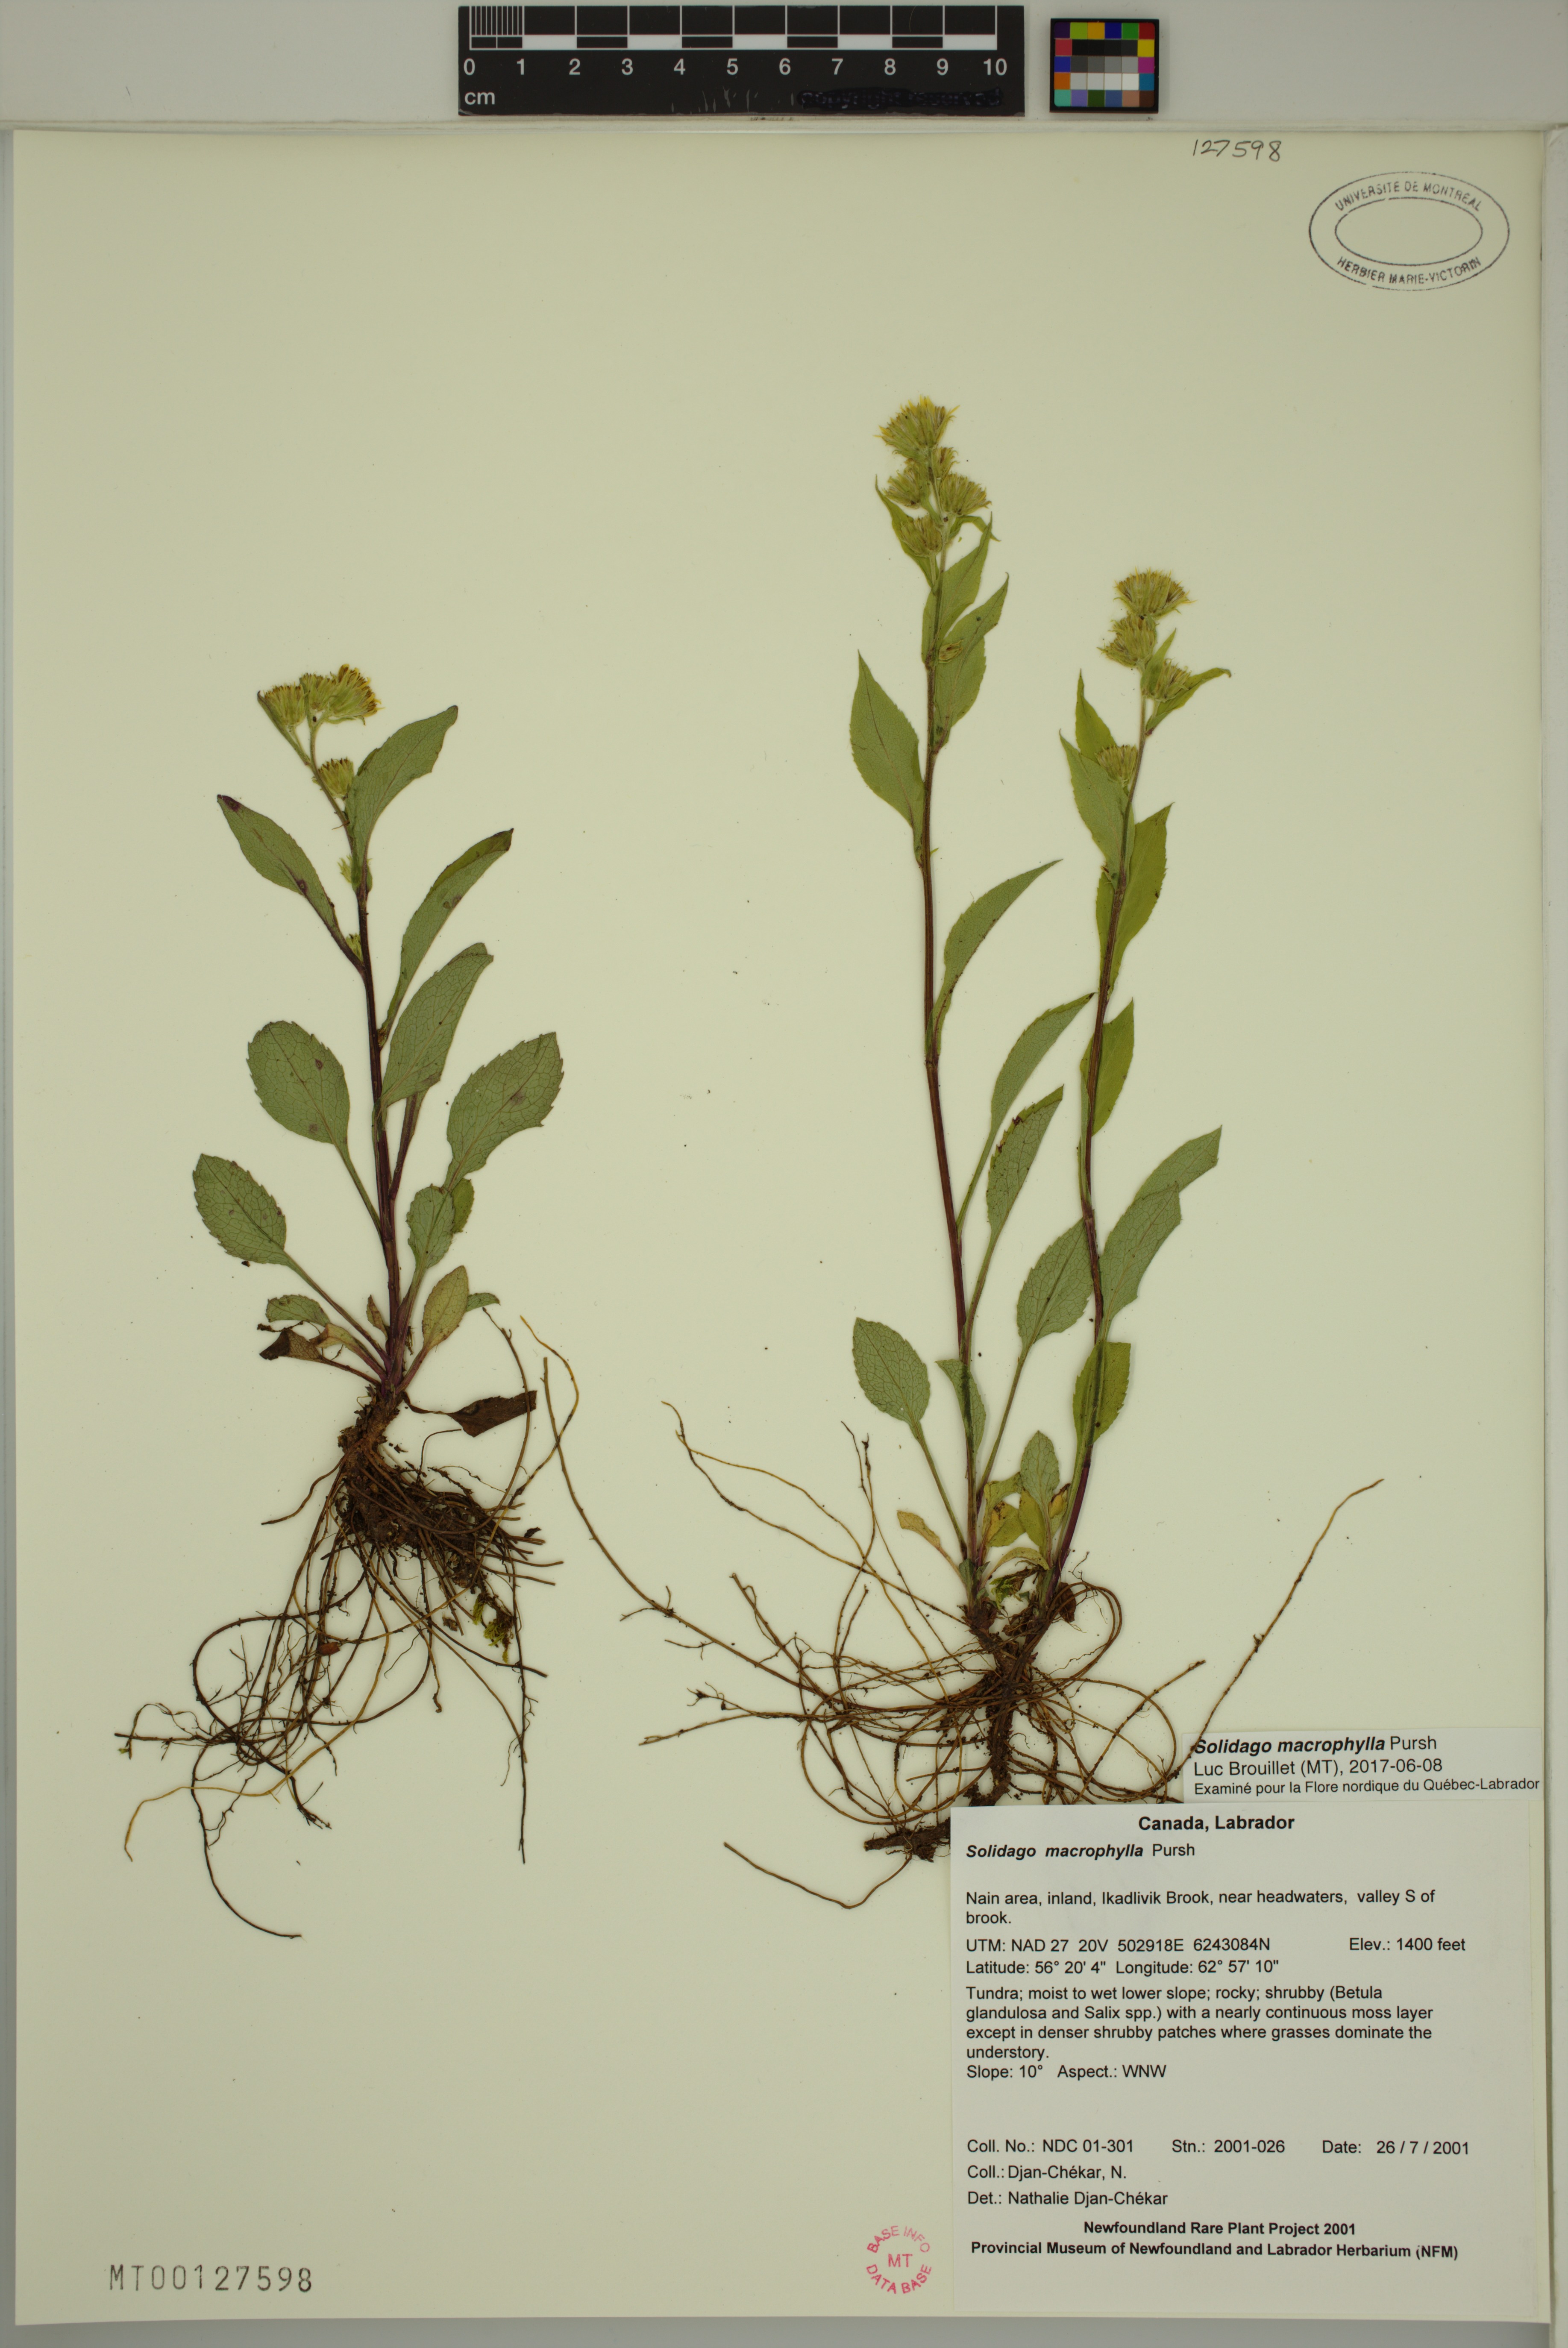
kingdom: Plantae
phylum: Tracheophyta
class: Magnoliopsida
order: Asterales
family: Asteraceae
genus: Solidago
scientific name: Solidago macrophylla
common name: Large-leaved goldenrod
